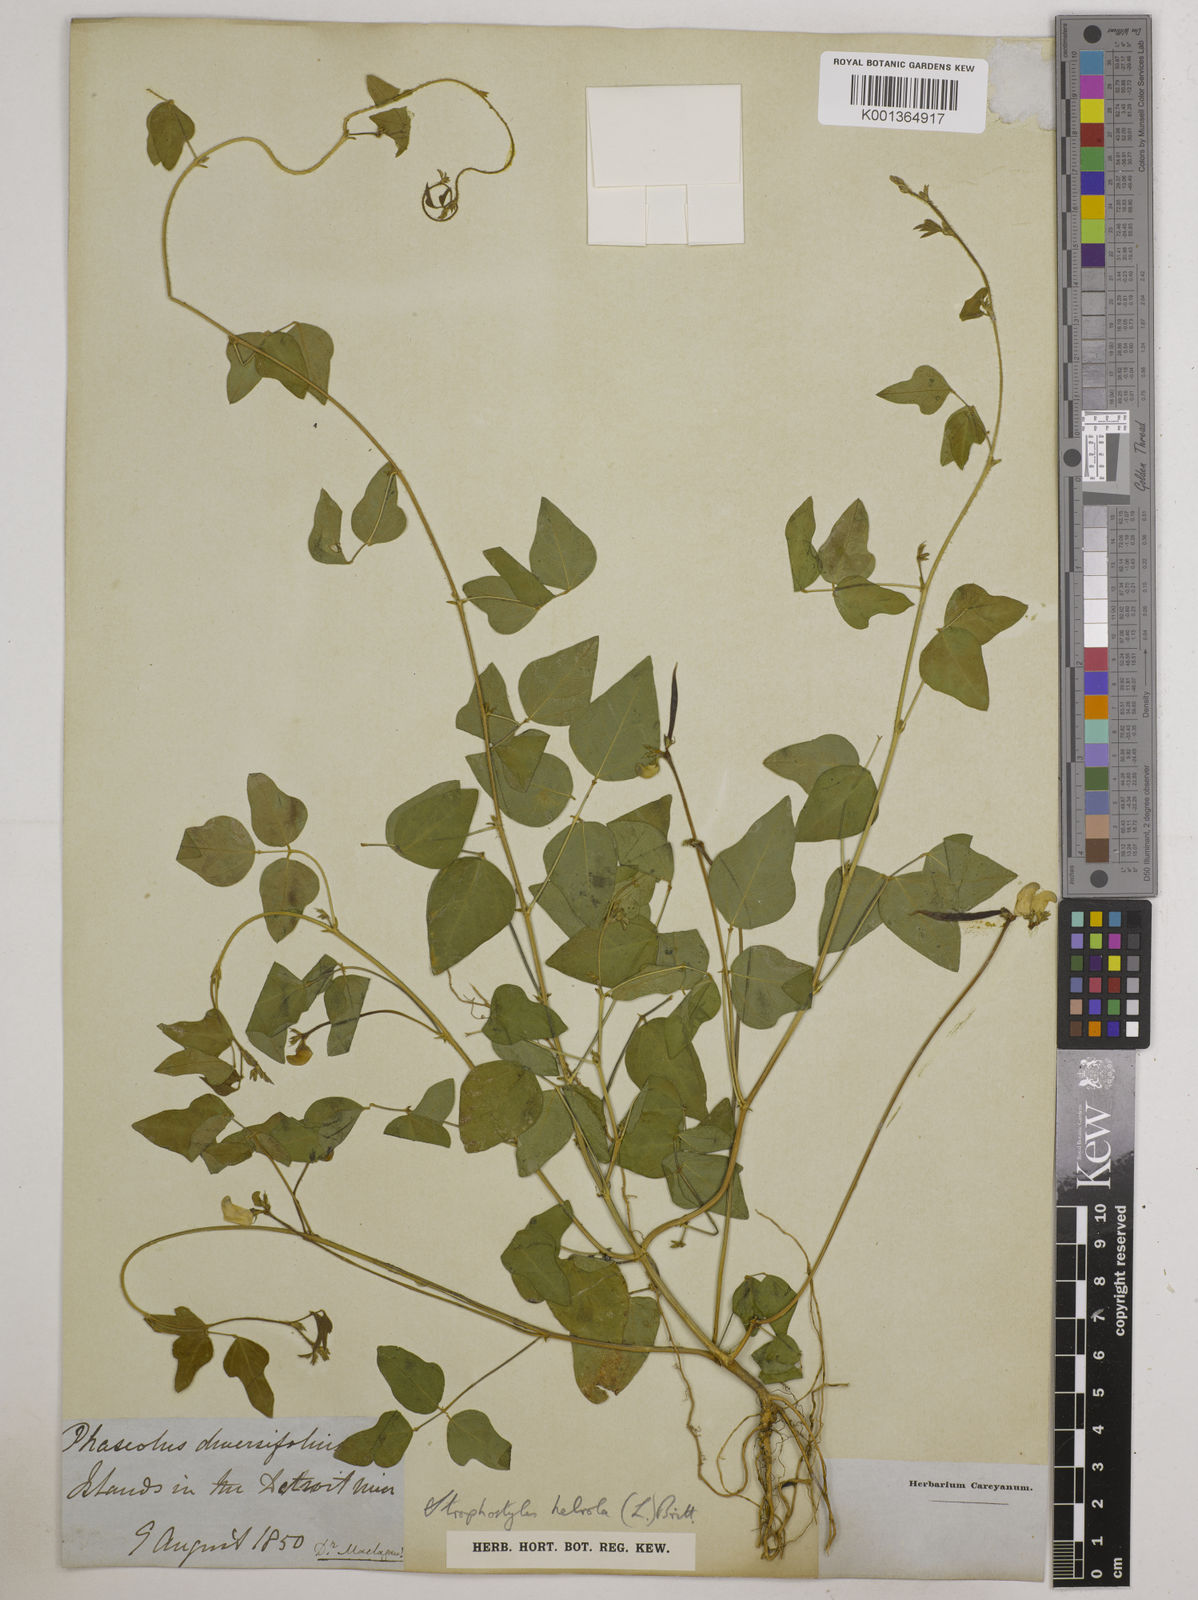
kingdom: Plantae
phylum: Tracheophyta
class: Magnoliopsida
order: Fabales
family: Fabaceae
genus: Strophostyles
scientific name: Strophostyles
